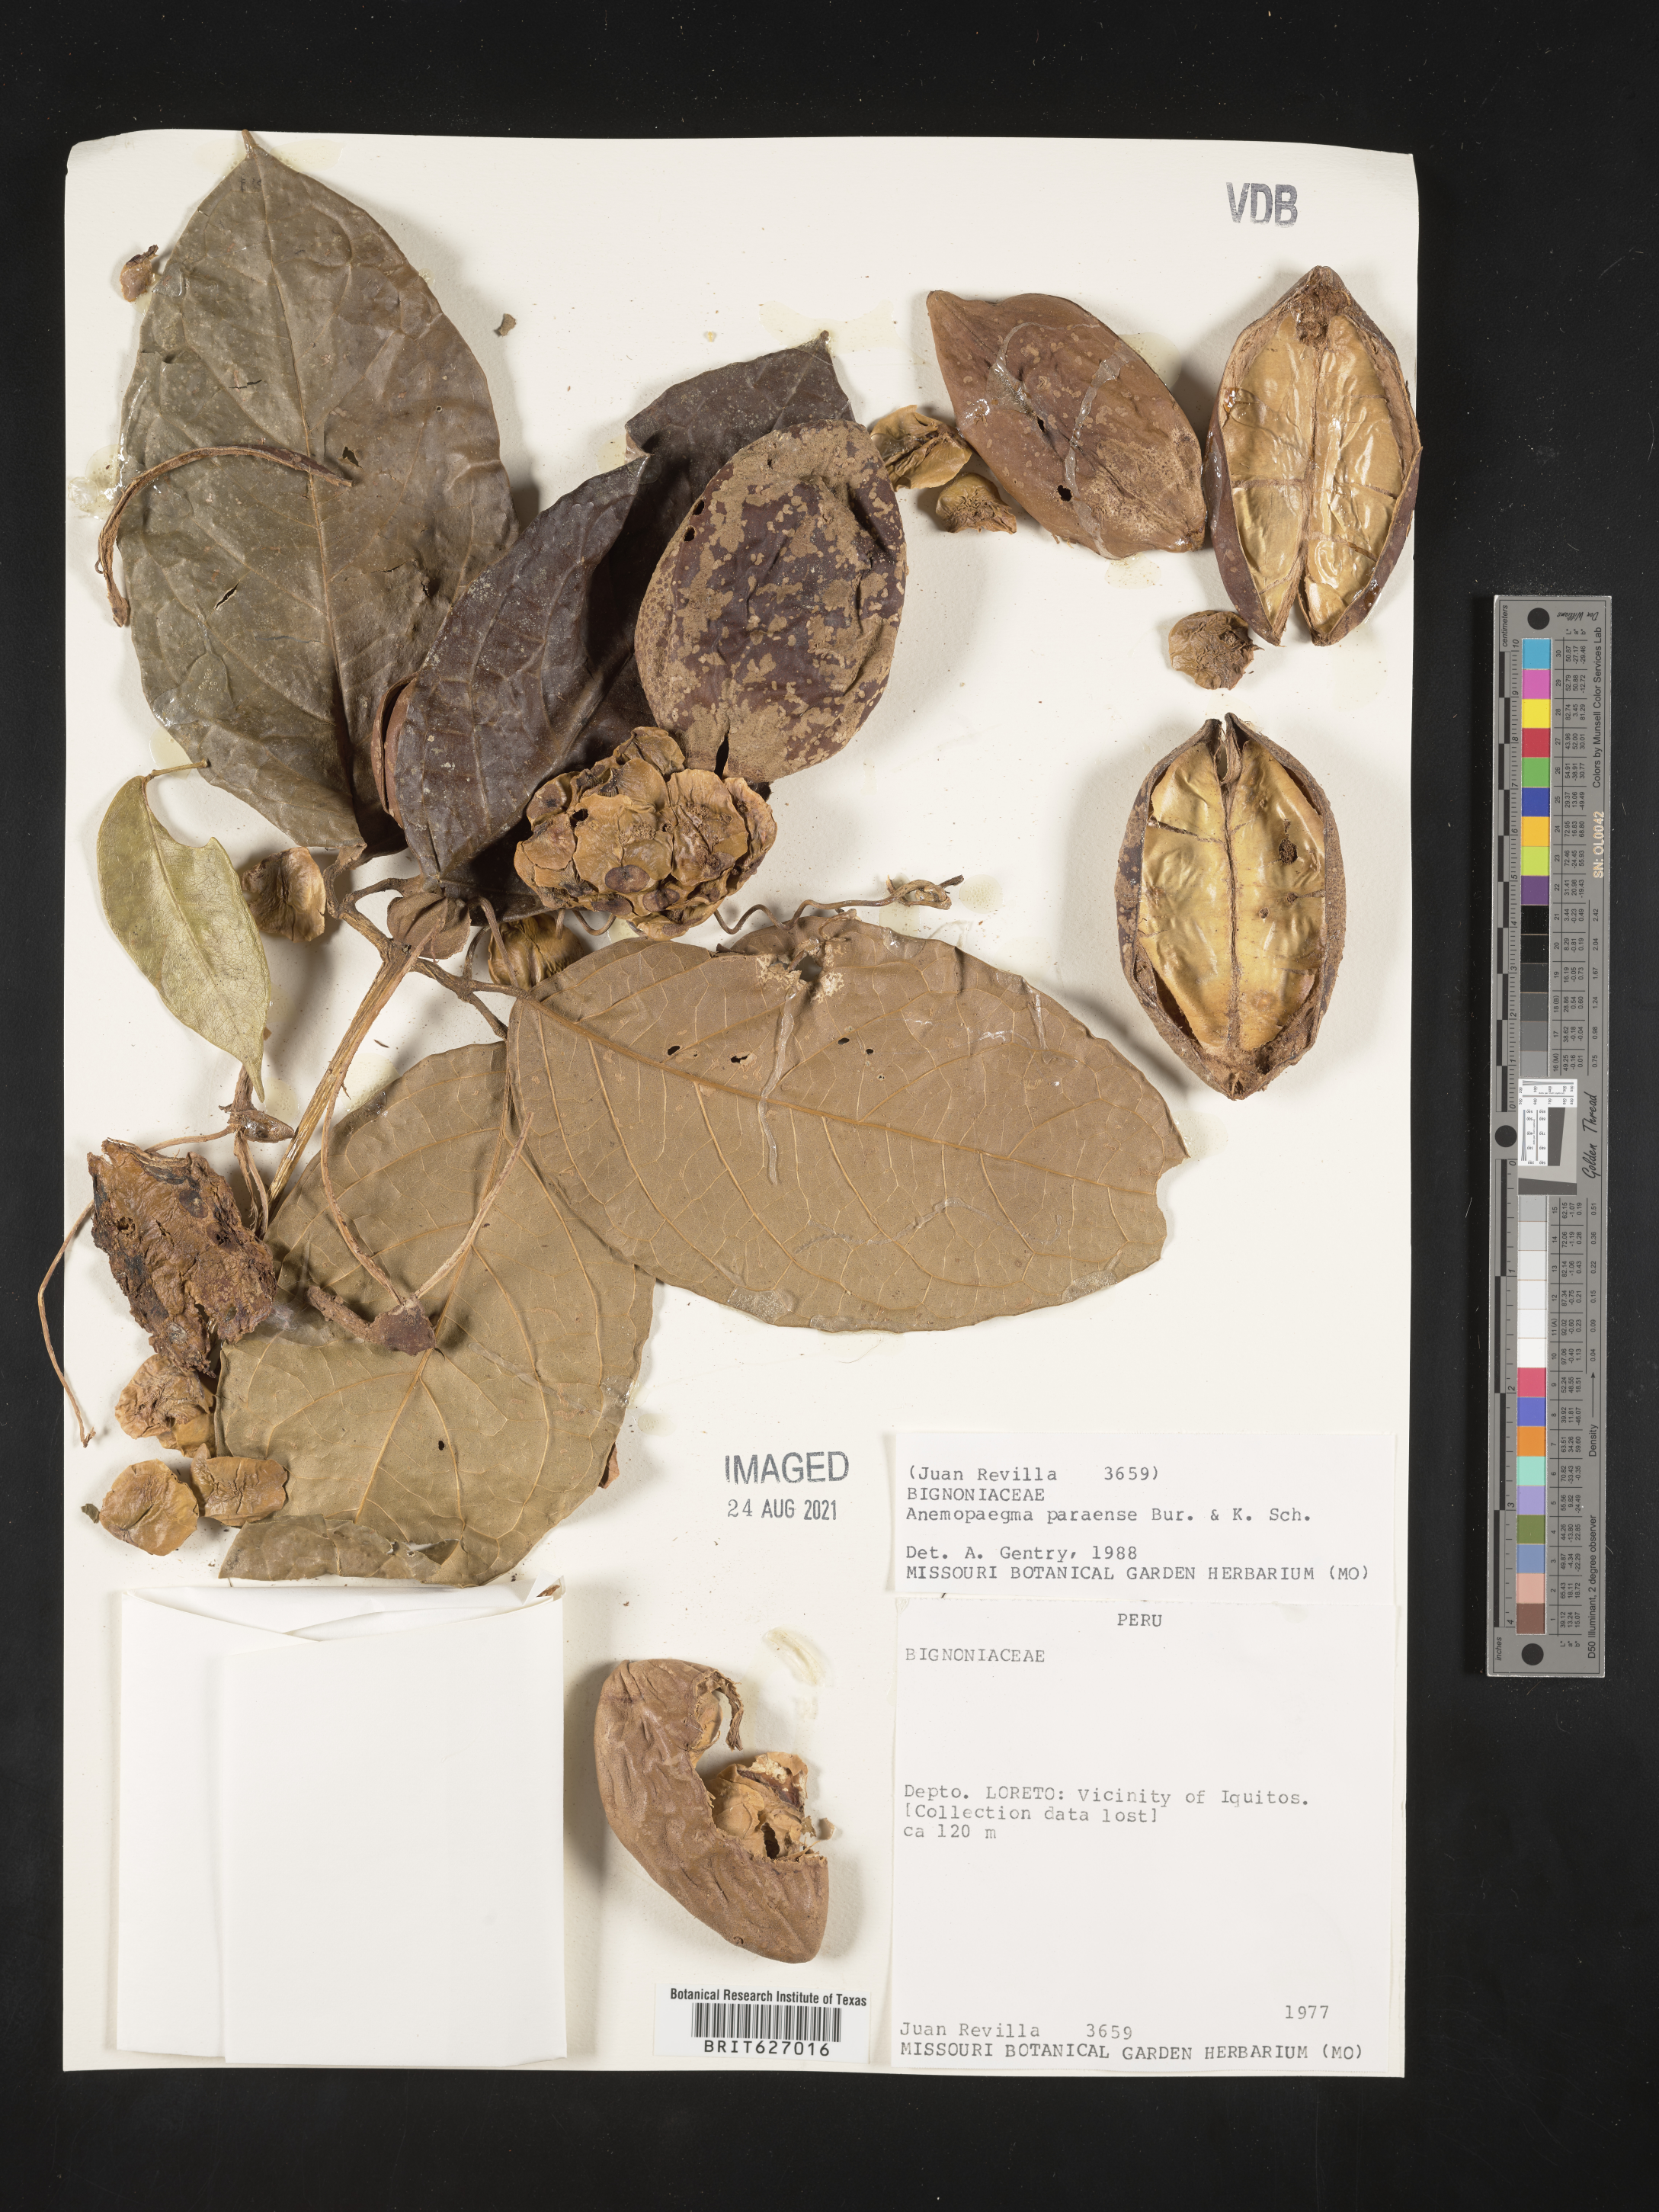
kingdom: Plantae
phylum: Tracheophyta
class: Magnoliopsida
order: Lamiales
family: Bignoniaceae
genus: Anemopaegma
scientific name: Anemopaegma paraense
